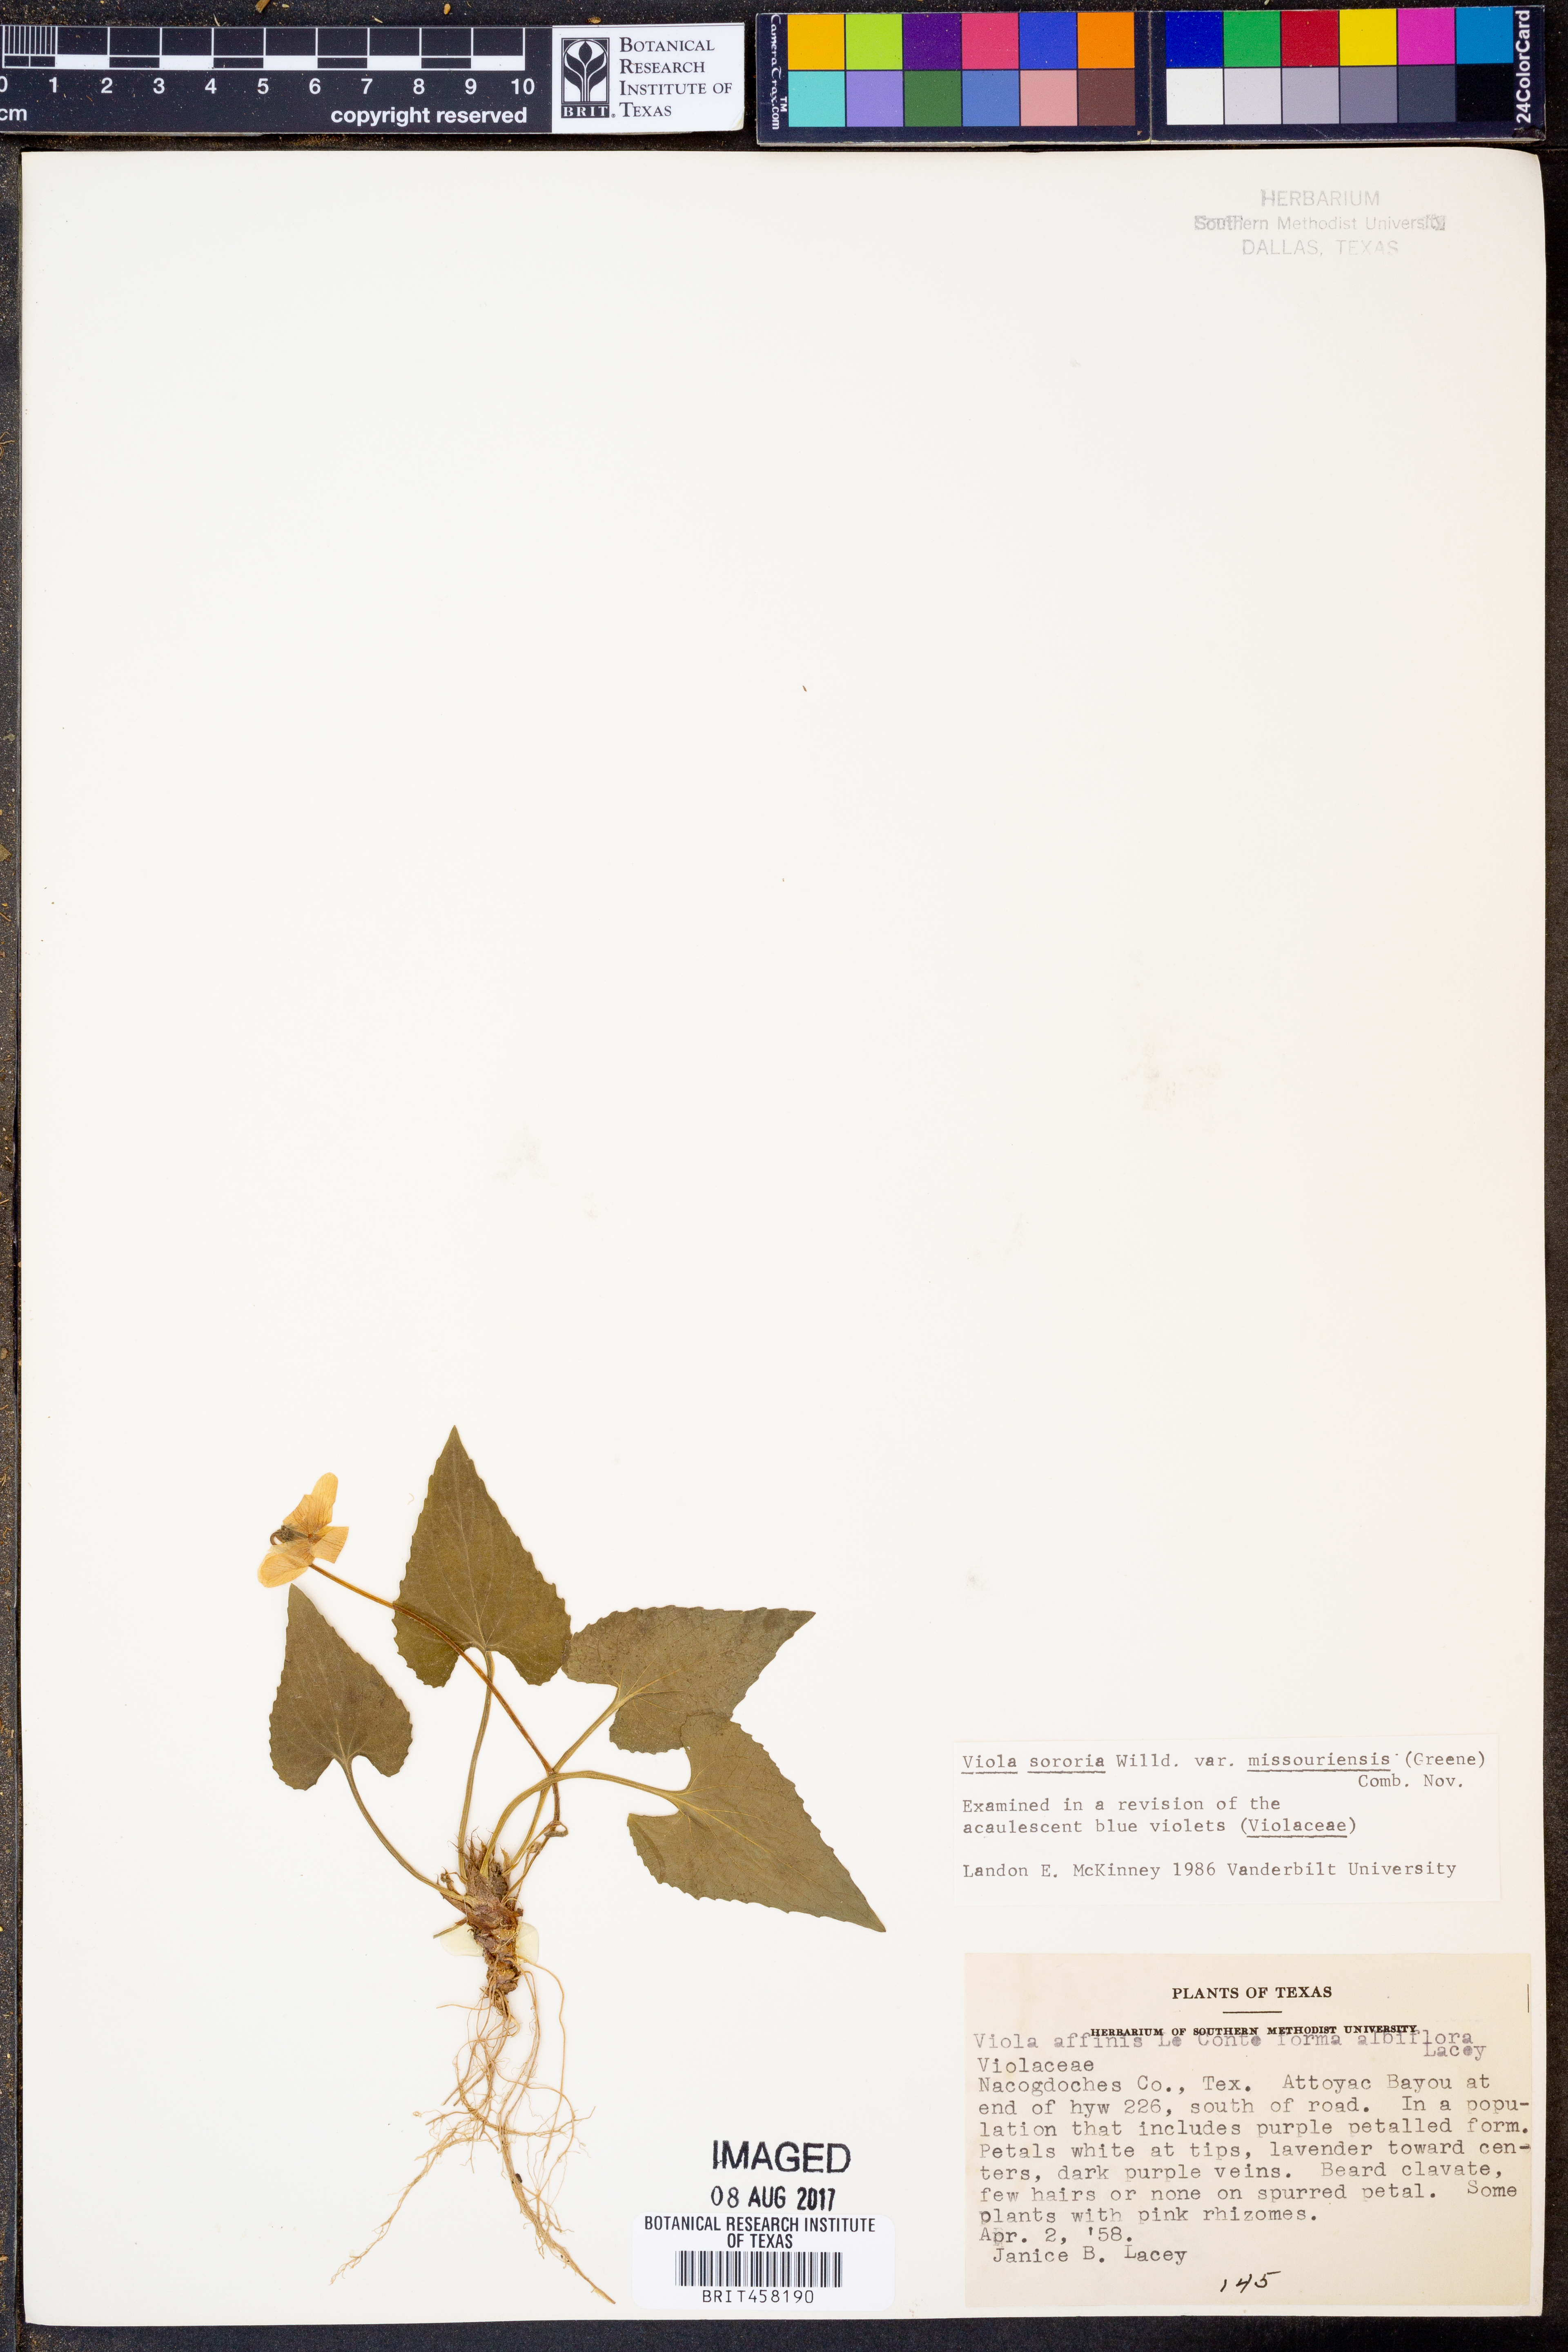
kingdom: Plantae
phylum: Tracheophyta
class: Magnoliopsida
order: Malpighiales
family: Violaceae
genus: Viola
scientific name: Viola missouriensis
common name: Missouri violet
